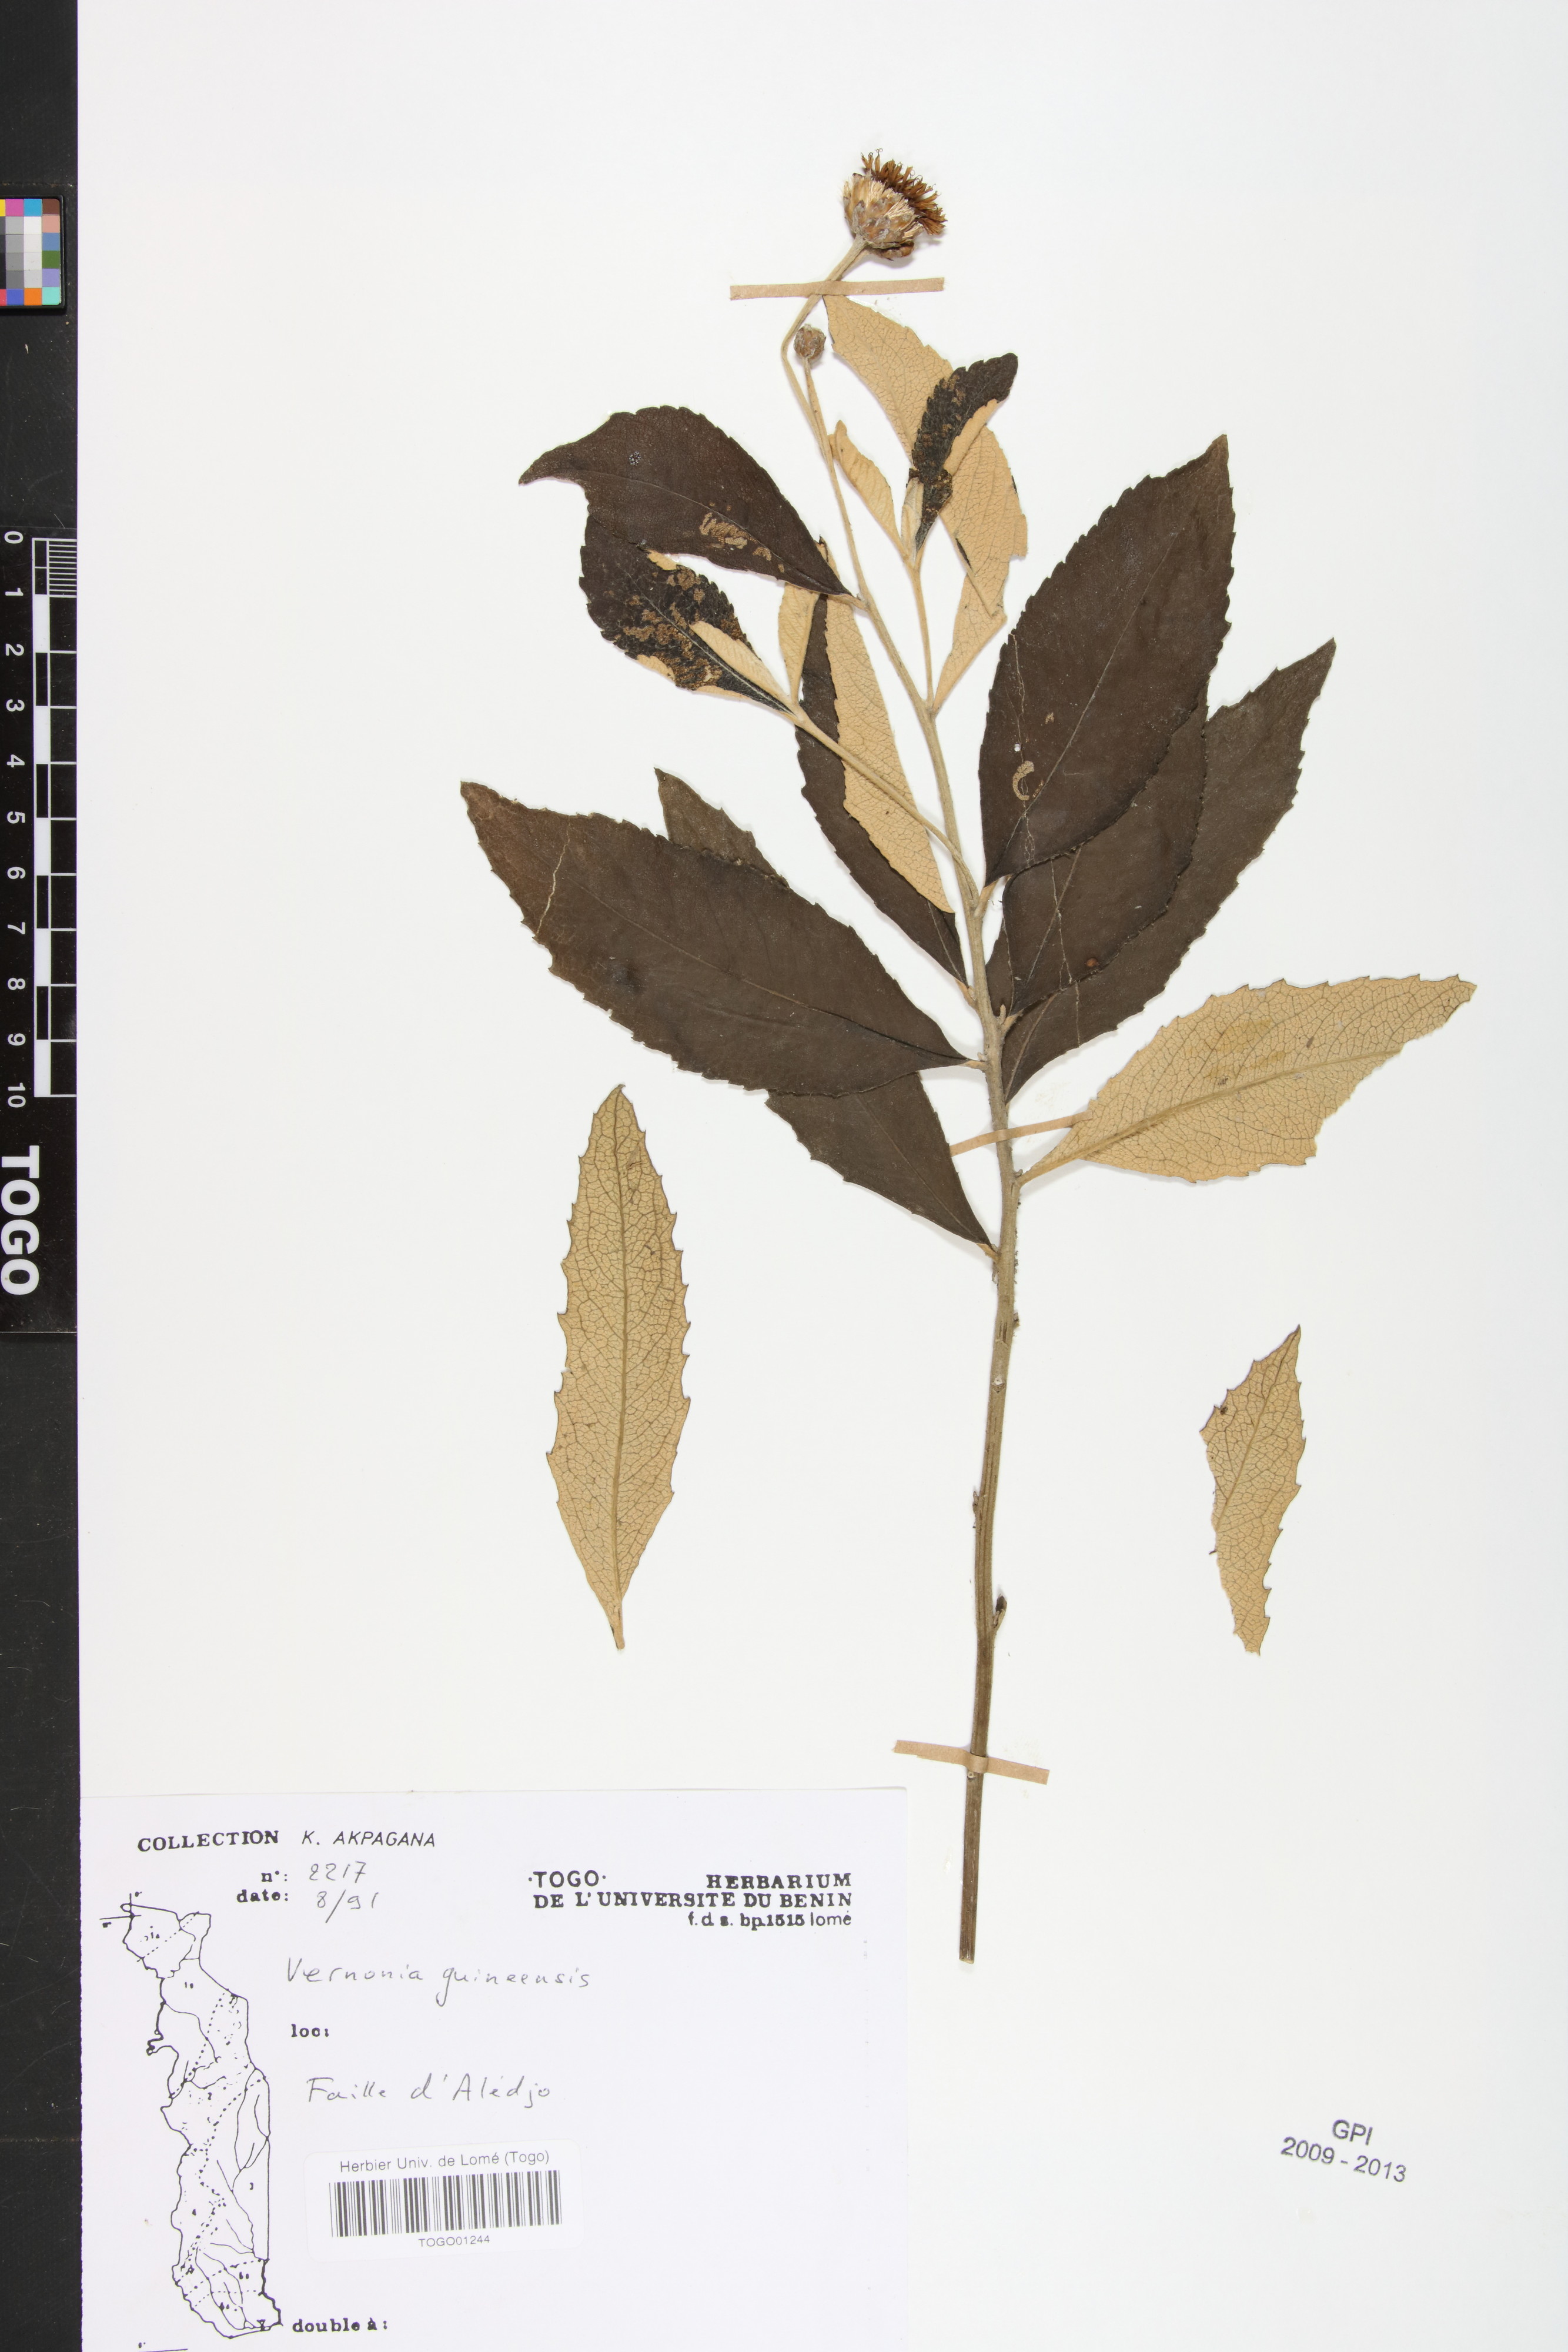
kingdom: Plantae
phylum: Tracheophyta
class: Magnoliopsida
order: Asterales
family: Asteraceae
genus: Baccharoides
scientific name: Baccharoides guineensis
